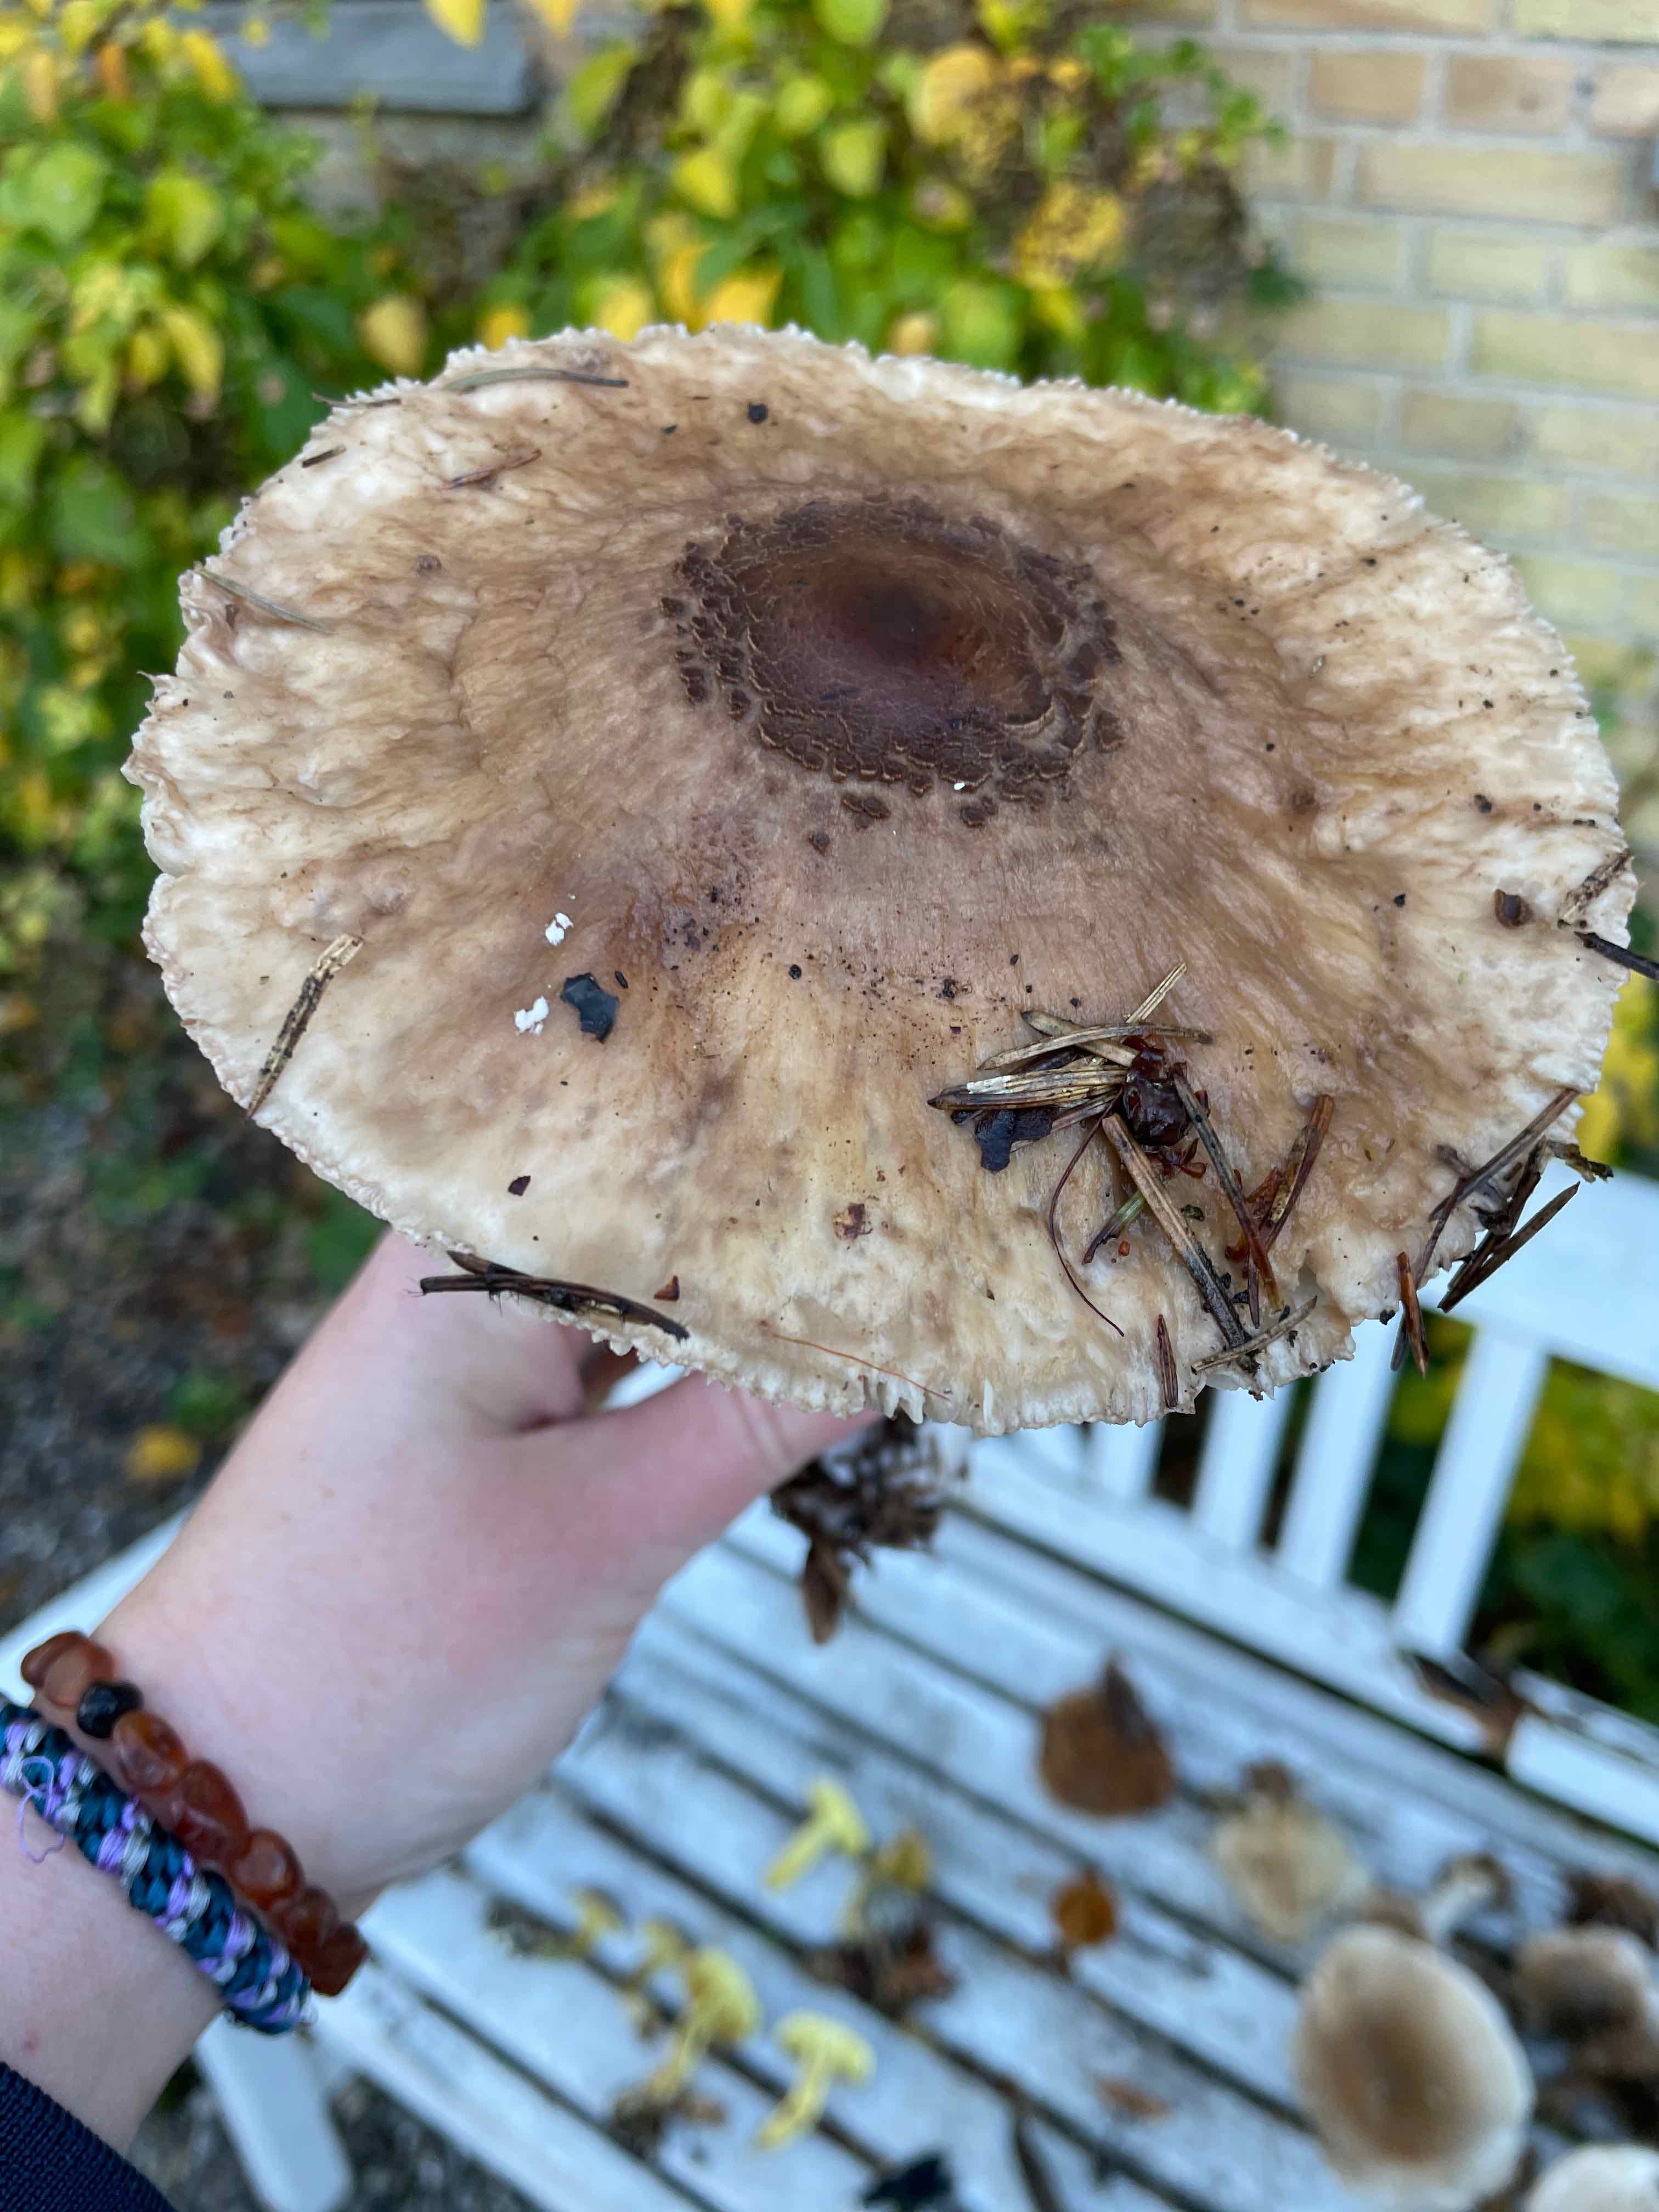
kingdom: Fungi
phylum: Basidiomycota
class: Agaricomycetes
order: Agaricales
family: Agaricaceae
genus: Macrolepiota
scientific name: Macrolepiota procera
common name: stor kæmpeparasolhat
